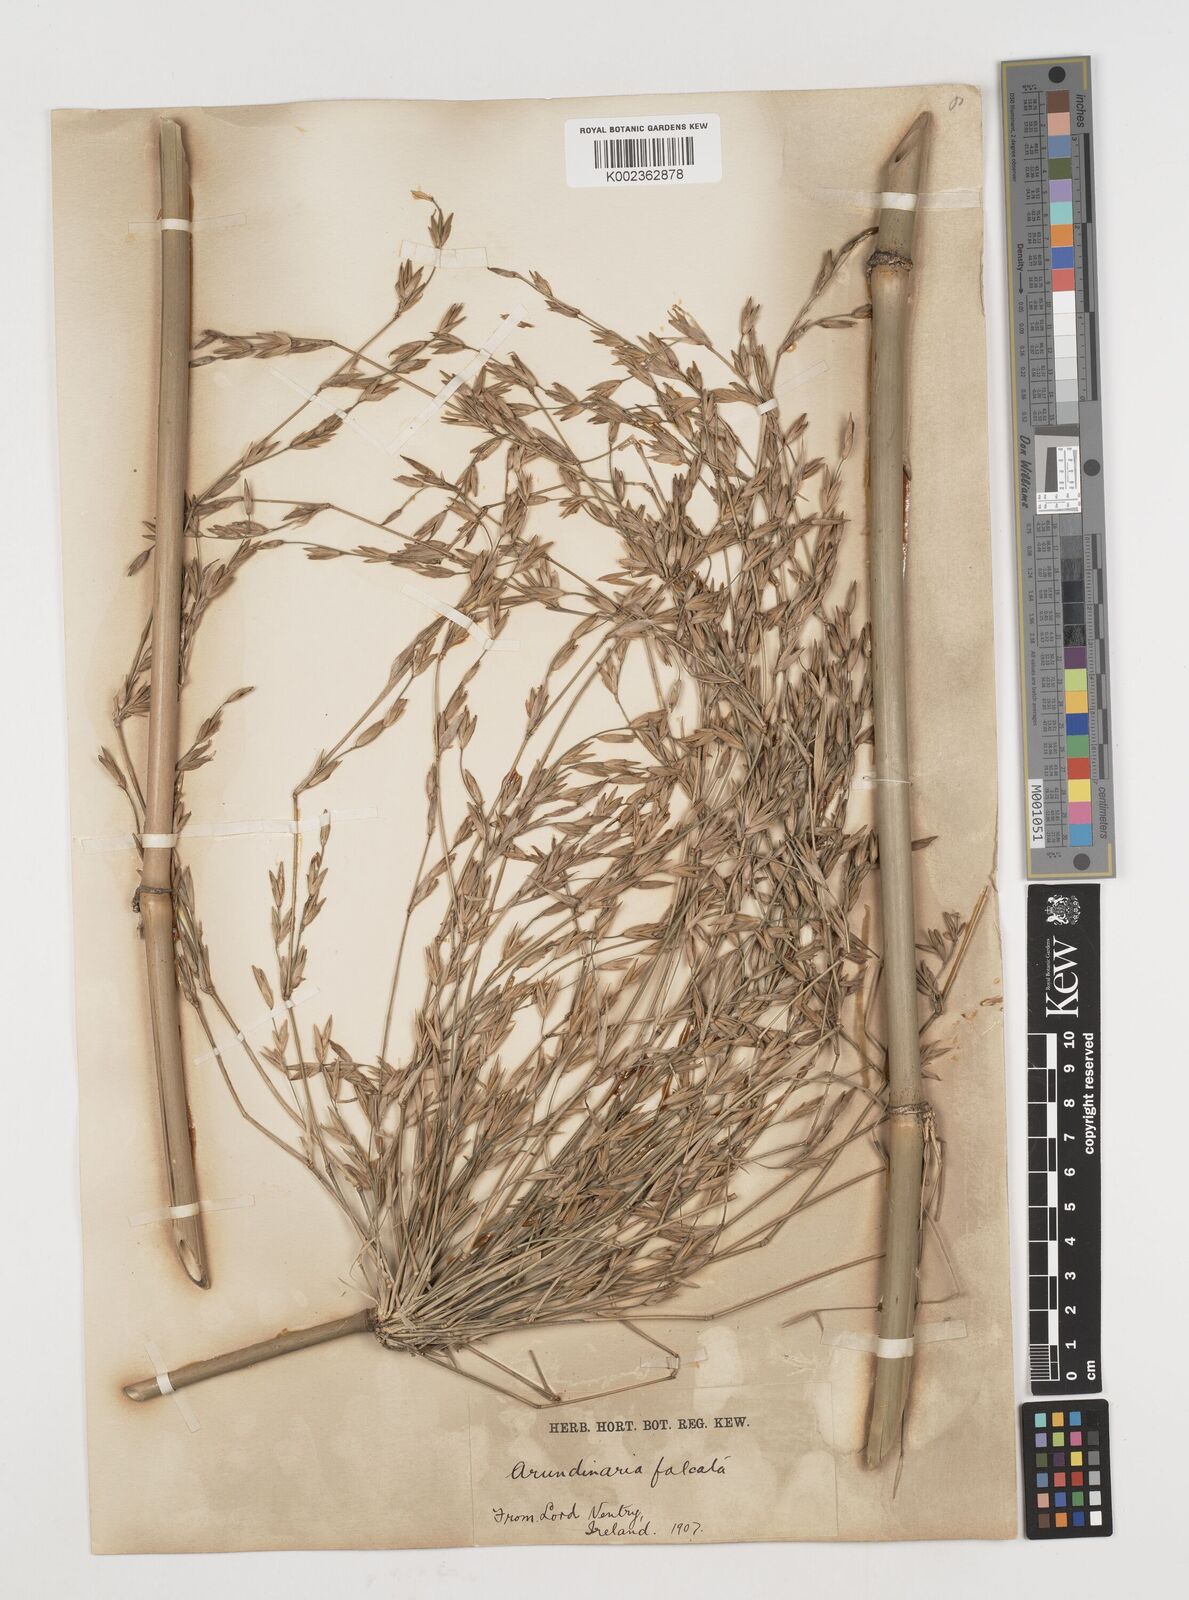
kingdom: Plantae
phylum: Tracheophyta
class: Liliopsida
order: Poales
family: Poaceae
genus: Drepanostachyum
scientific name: Drepanostachyum falcatum
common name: Himalayan bamboo
